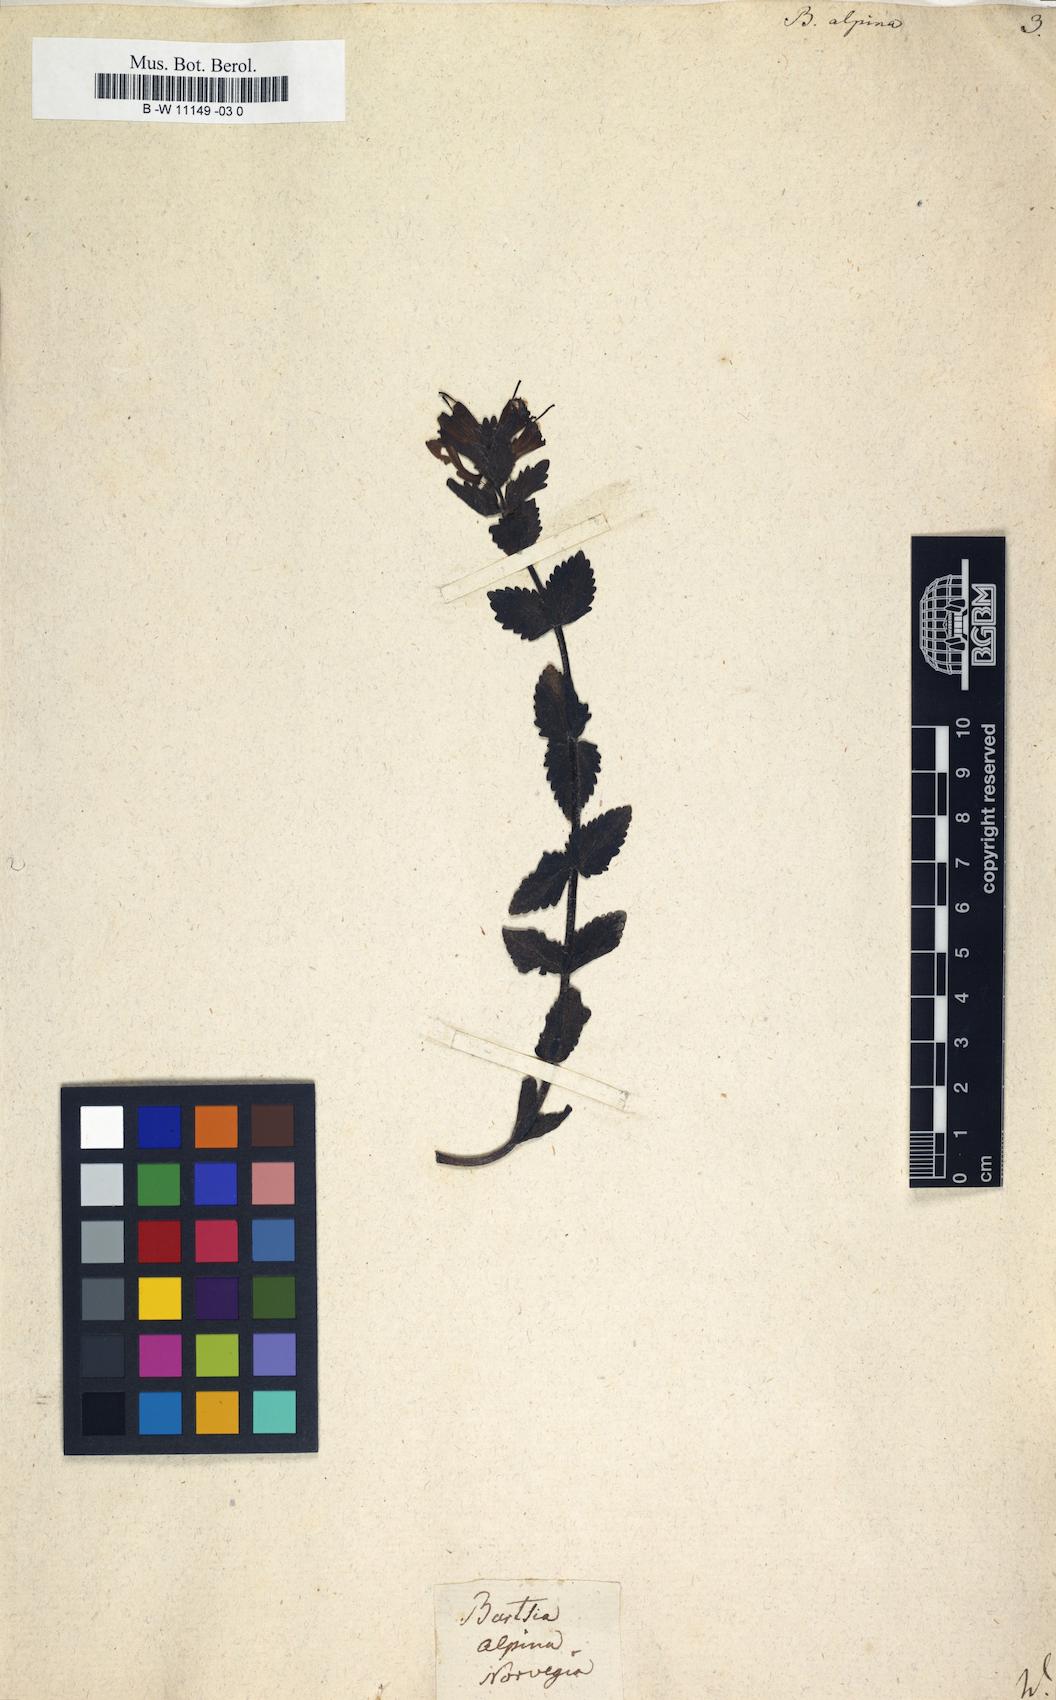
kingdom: Plantae
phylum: Tracheophyta
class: Magnoliopsida
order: Lamiales
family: Orobanchaceae
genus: Bartsia
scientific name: Bartsia alpina
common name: Alpine bartsia
